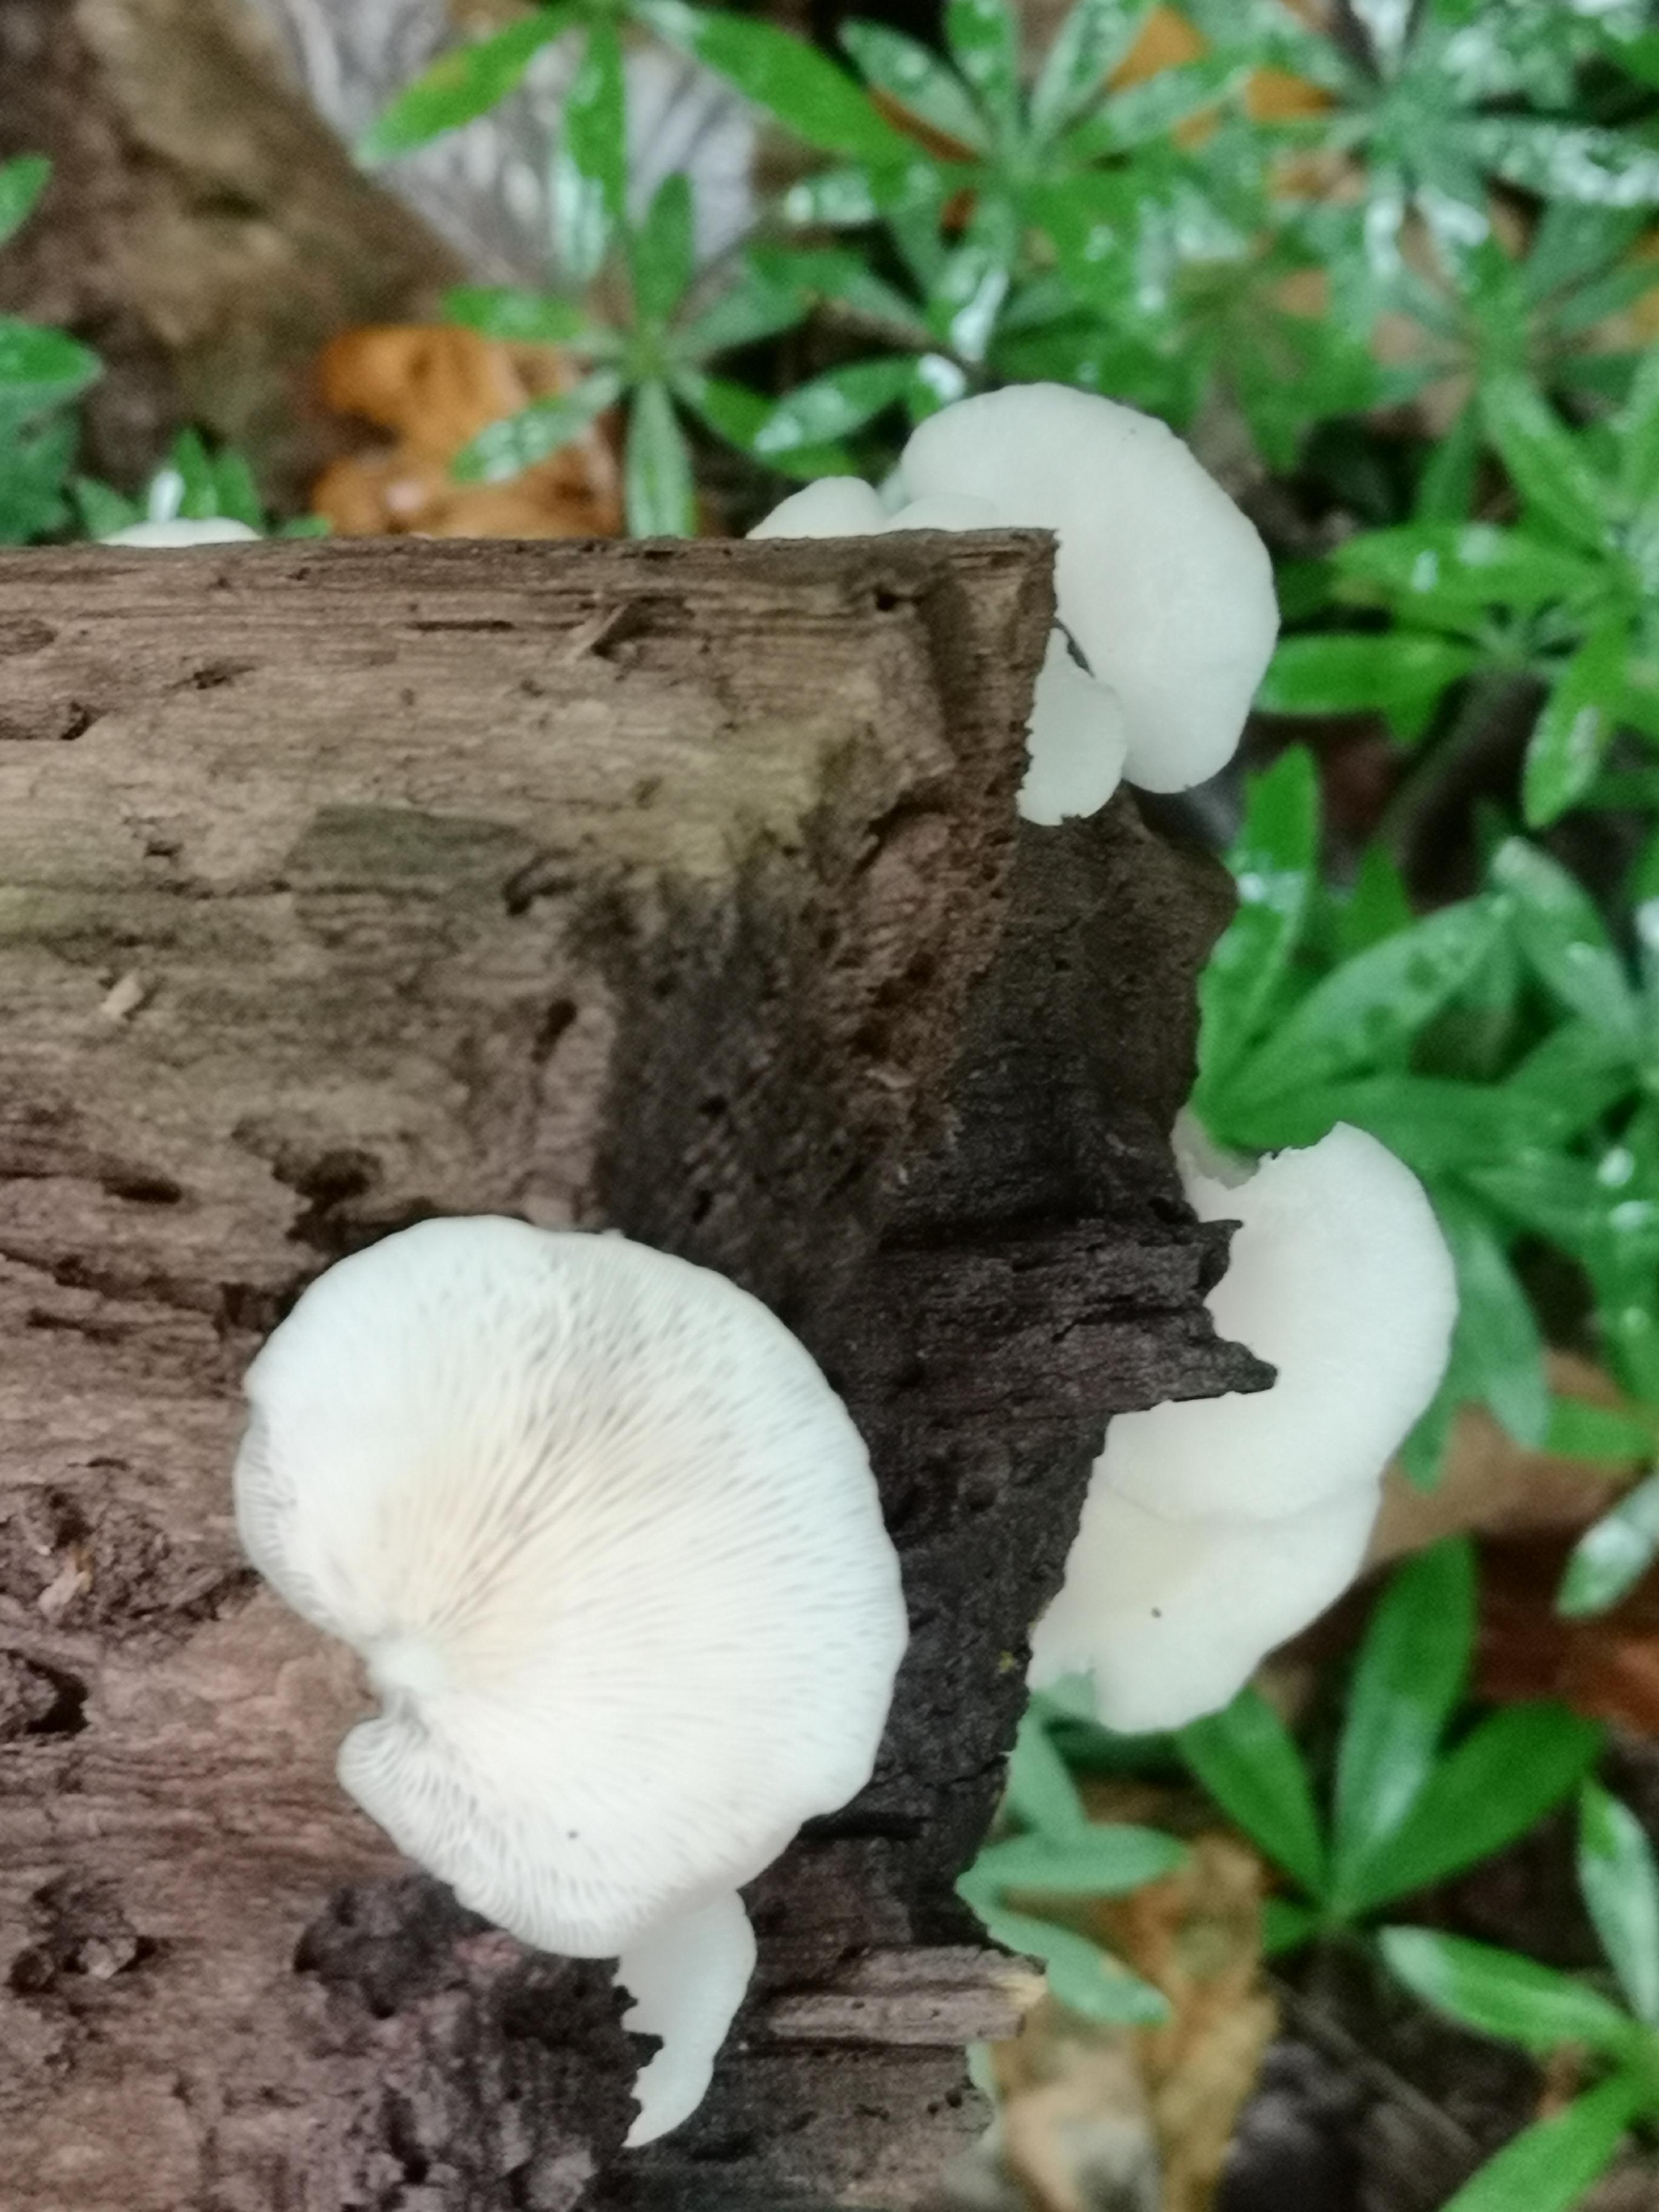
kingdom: Fungi
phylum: Basidiomycota
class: Agaricomycetes
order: Agaricales
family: Crepidotaceae
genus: Crepidotus
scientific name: Crepidotus
